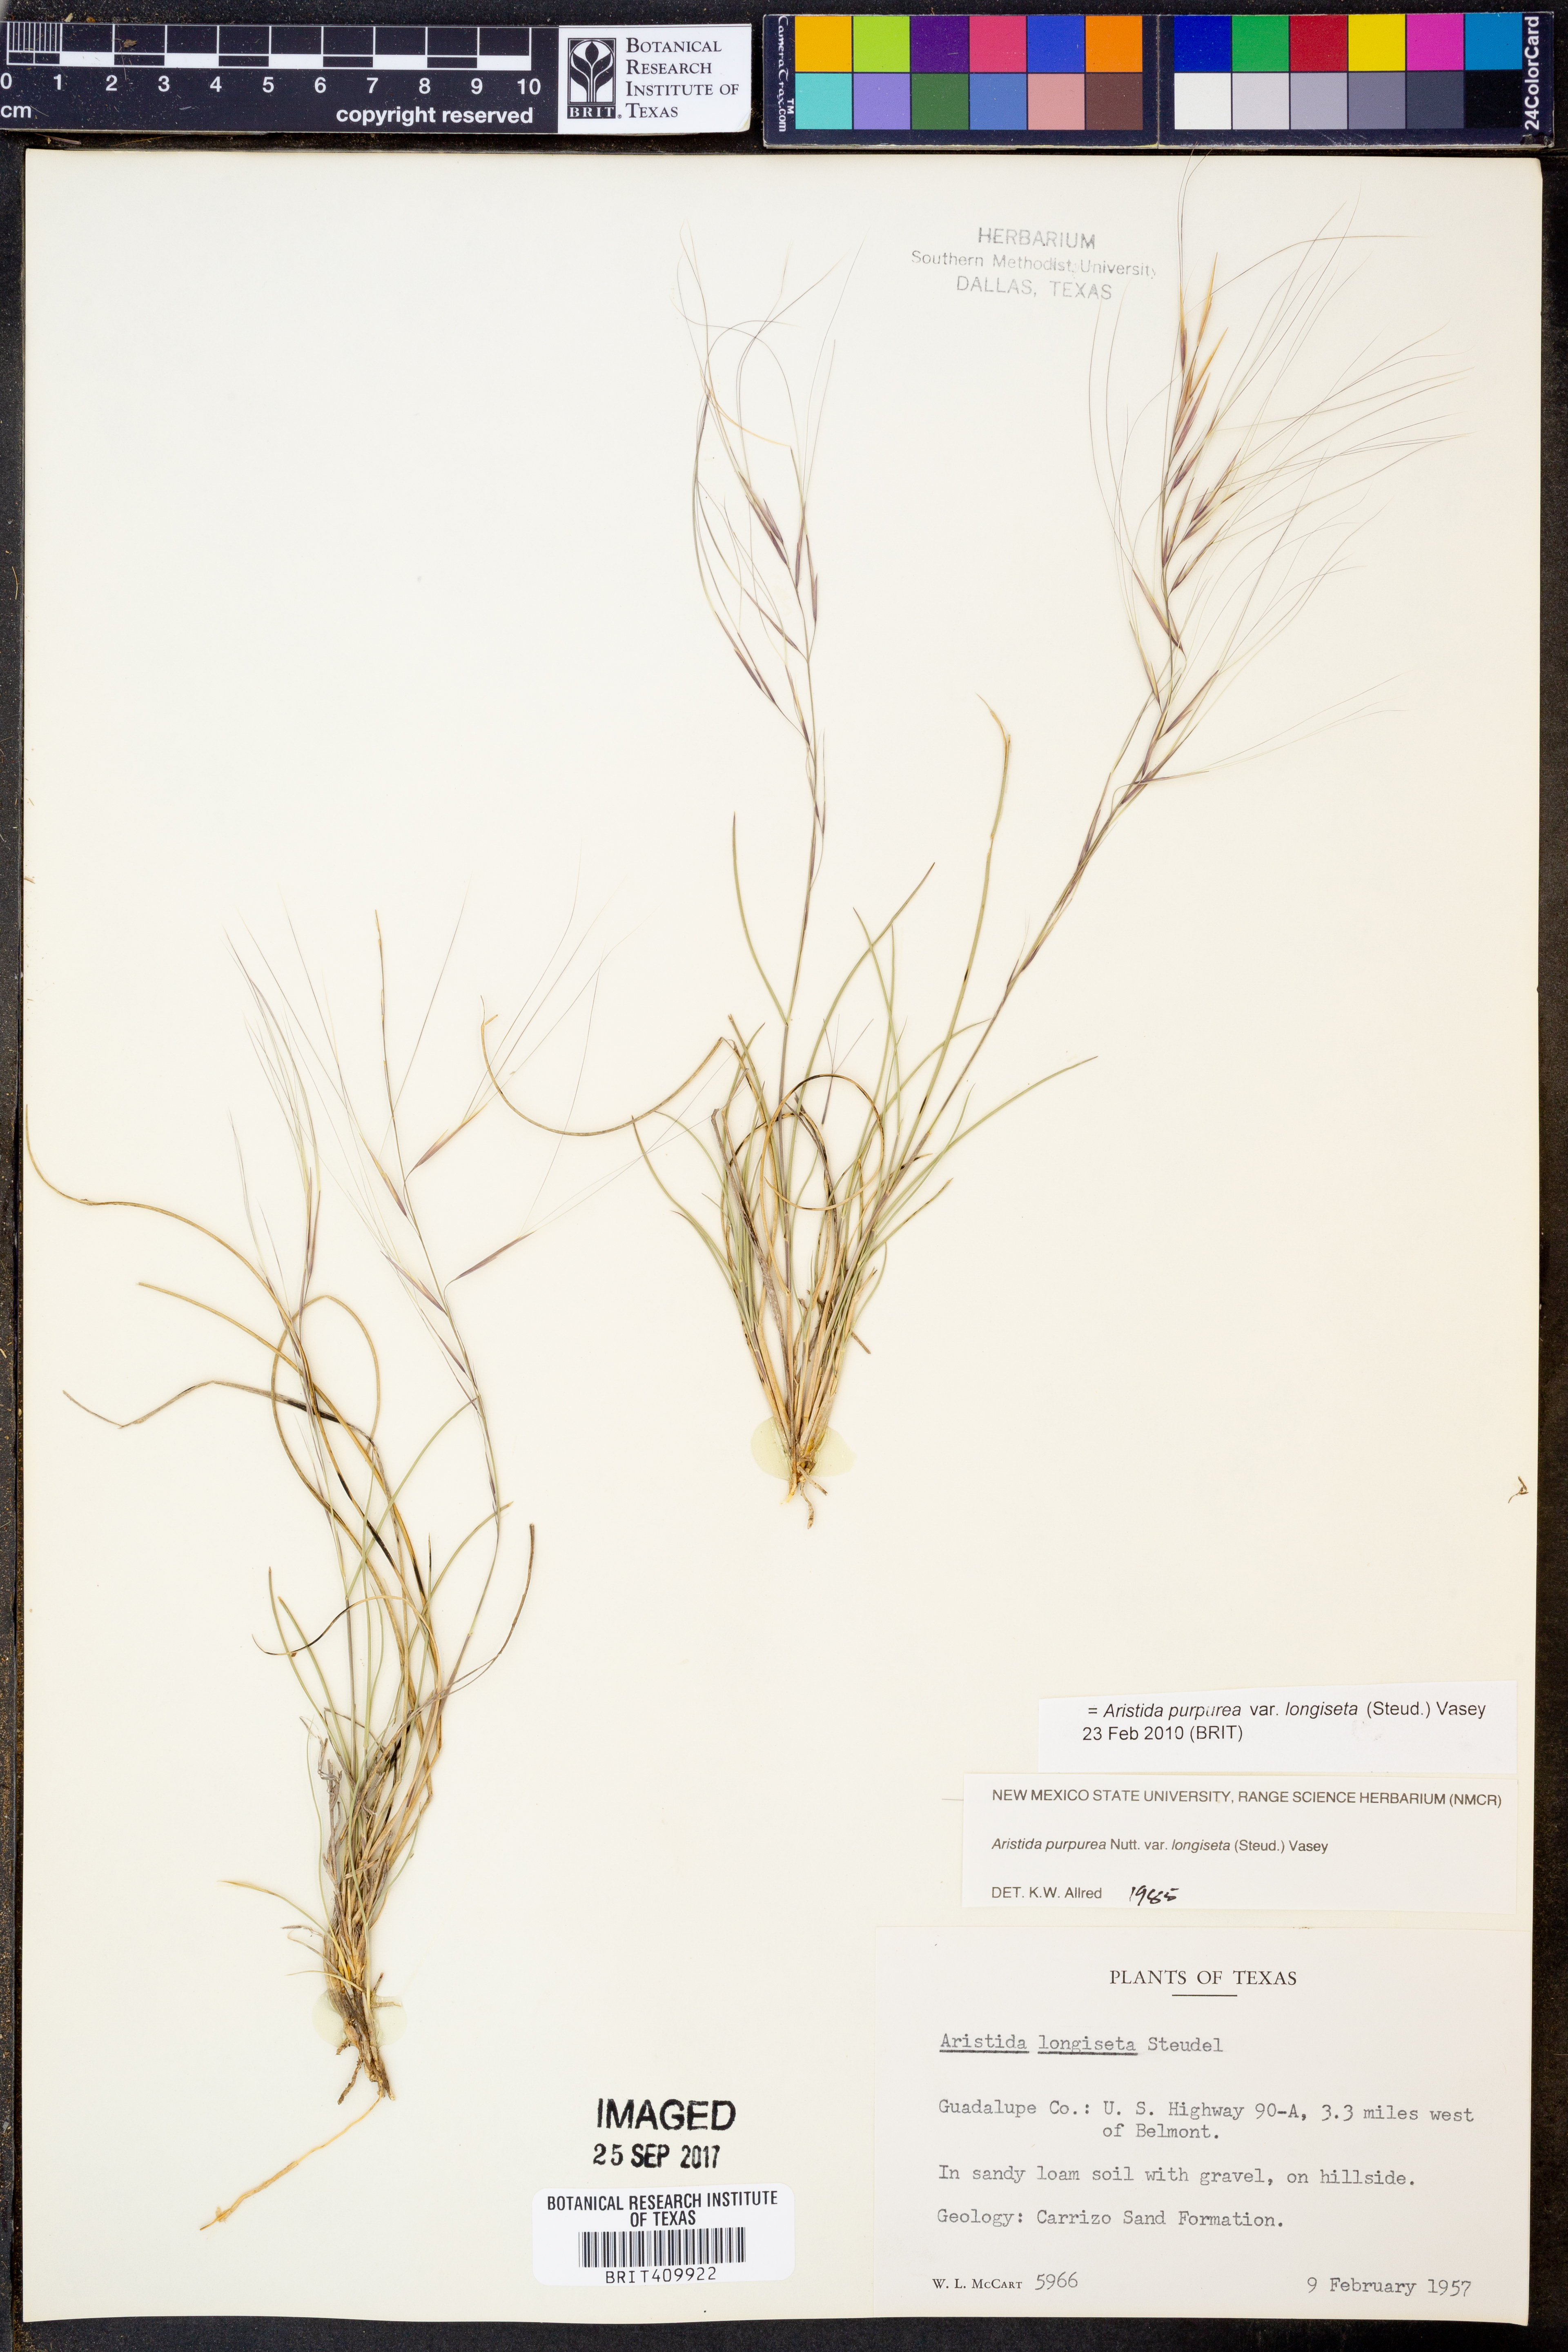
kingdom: Plantae
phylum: Tracheophyta
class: Liliopsida
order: Poales
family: Poaceae
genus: Aristida
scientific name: Aristida longiseta
